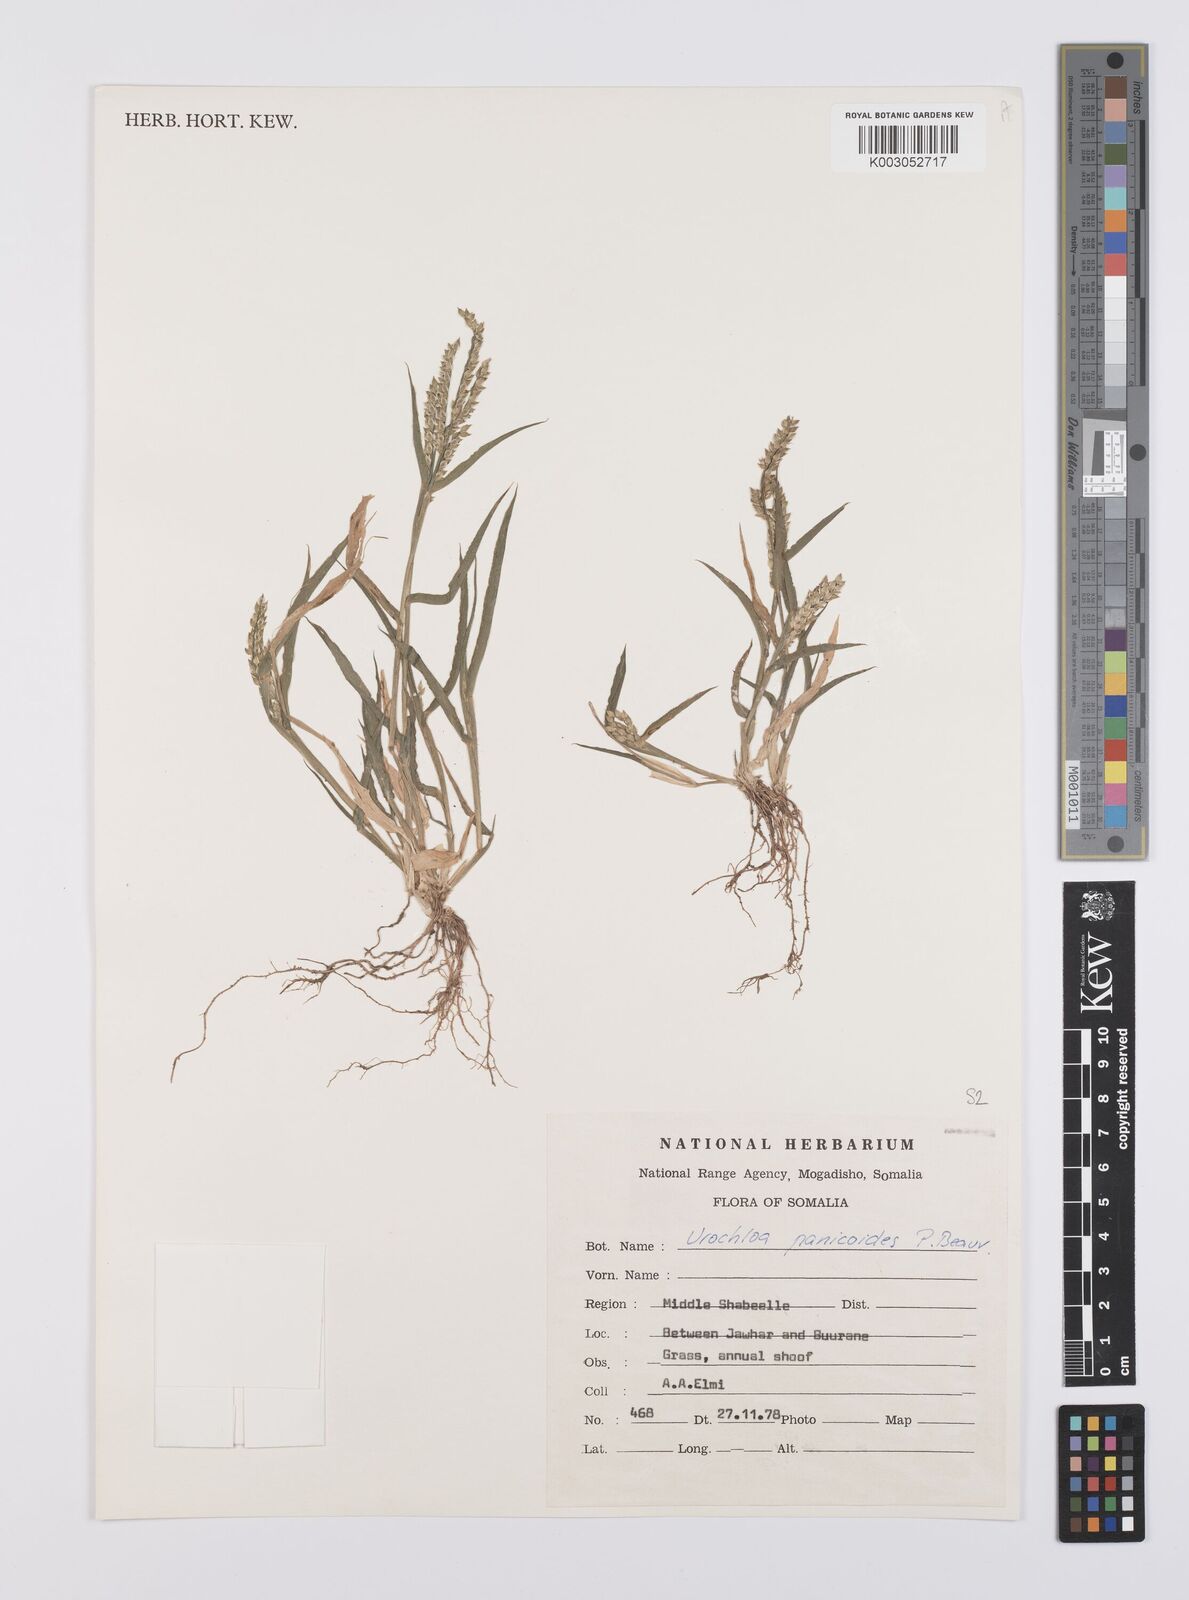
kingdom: Plantae
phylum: Tracheophyta
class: Liliopsida
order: Poales
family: Poaceae
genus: Urochloa
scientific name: Urochloa panicoides
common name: Sharp-flowered signal-grass
